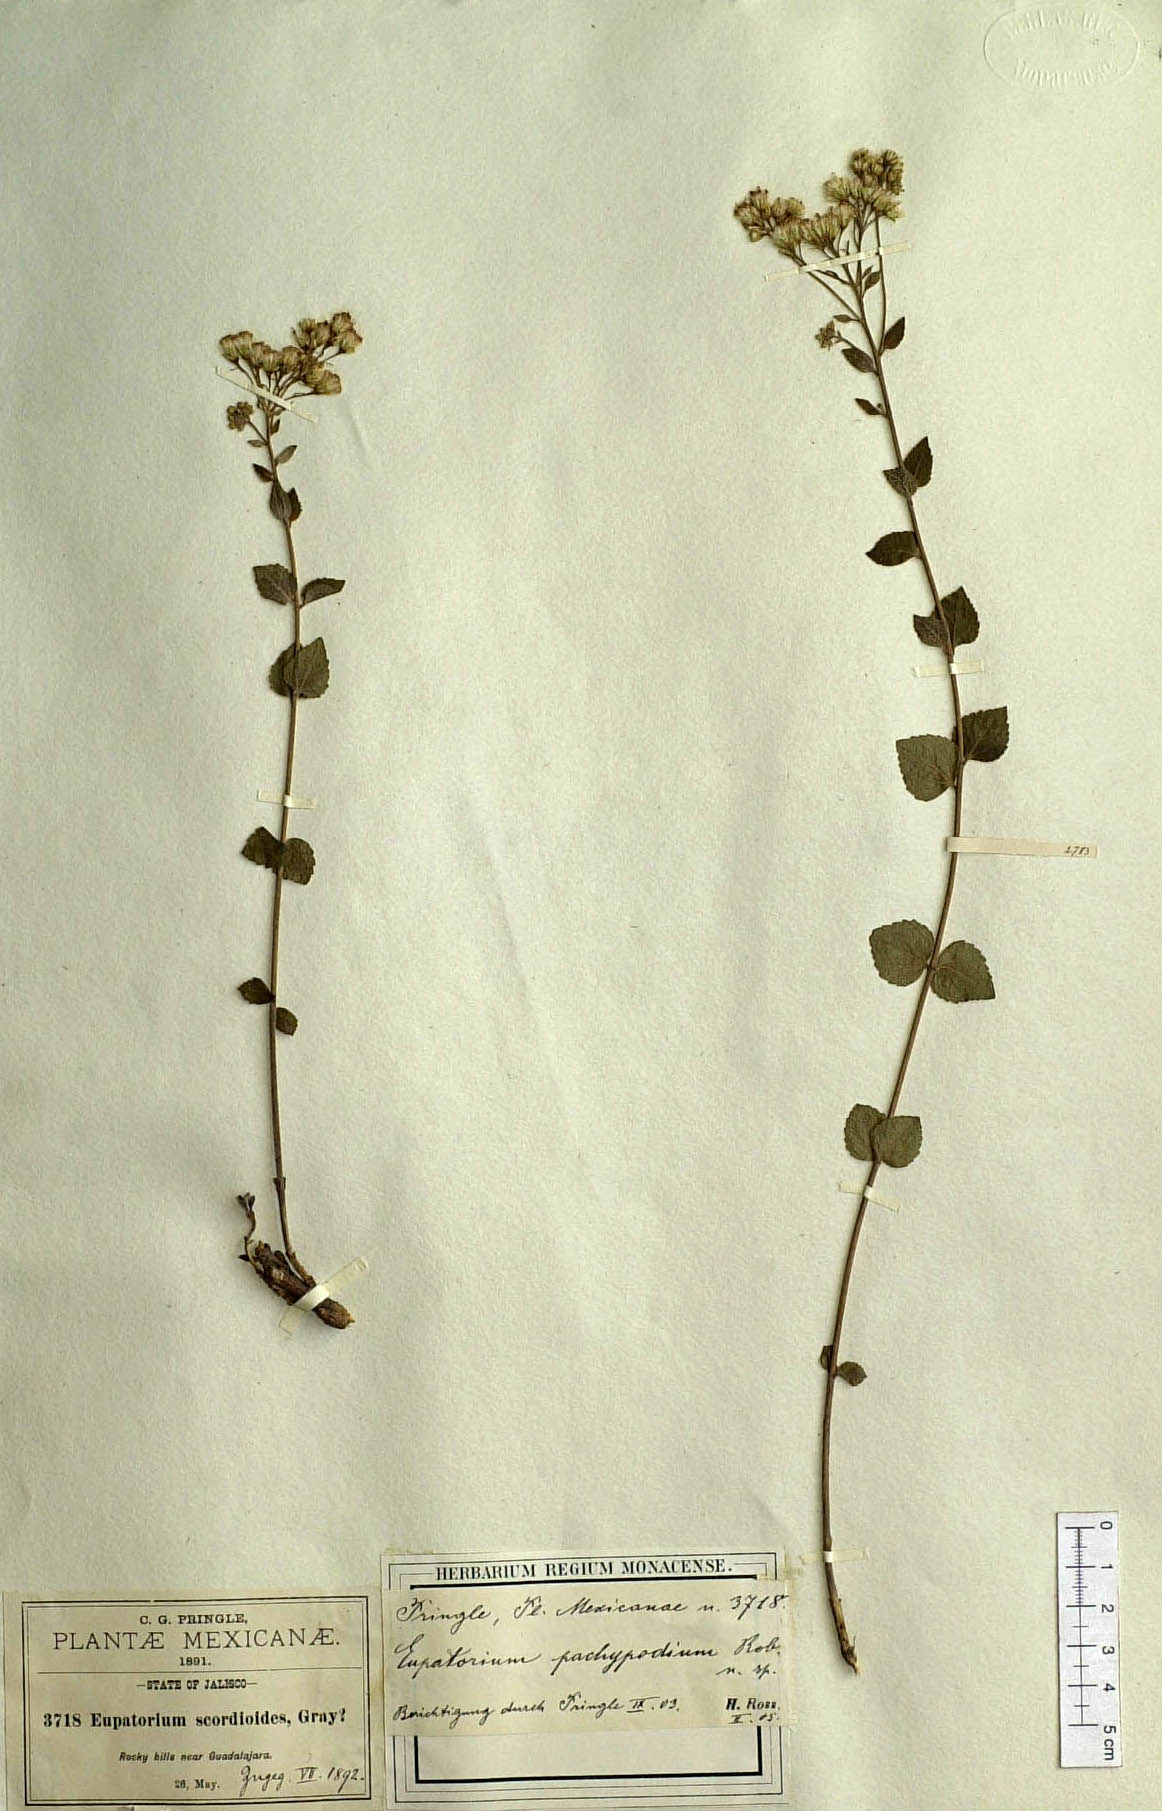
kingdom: Plantae
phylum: Tracheophyta
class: Magnoliopsida
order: Asterales
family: Asteraceae
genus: Ageratina
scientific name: Ageratina leptodictyon
